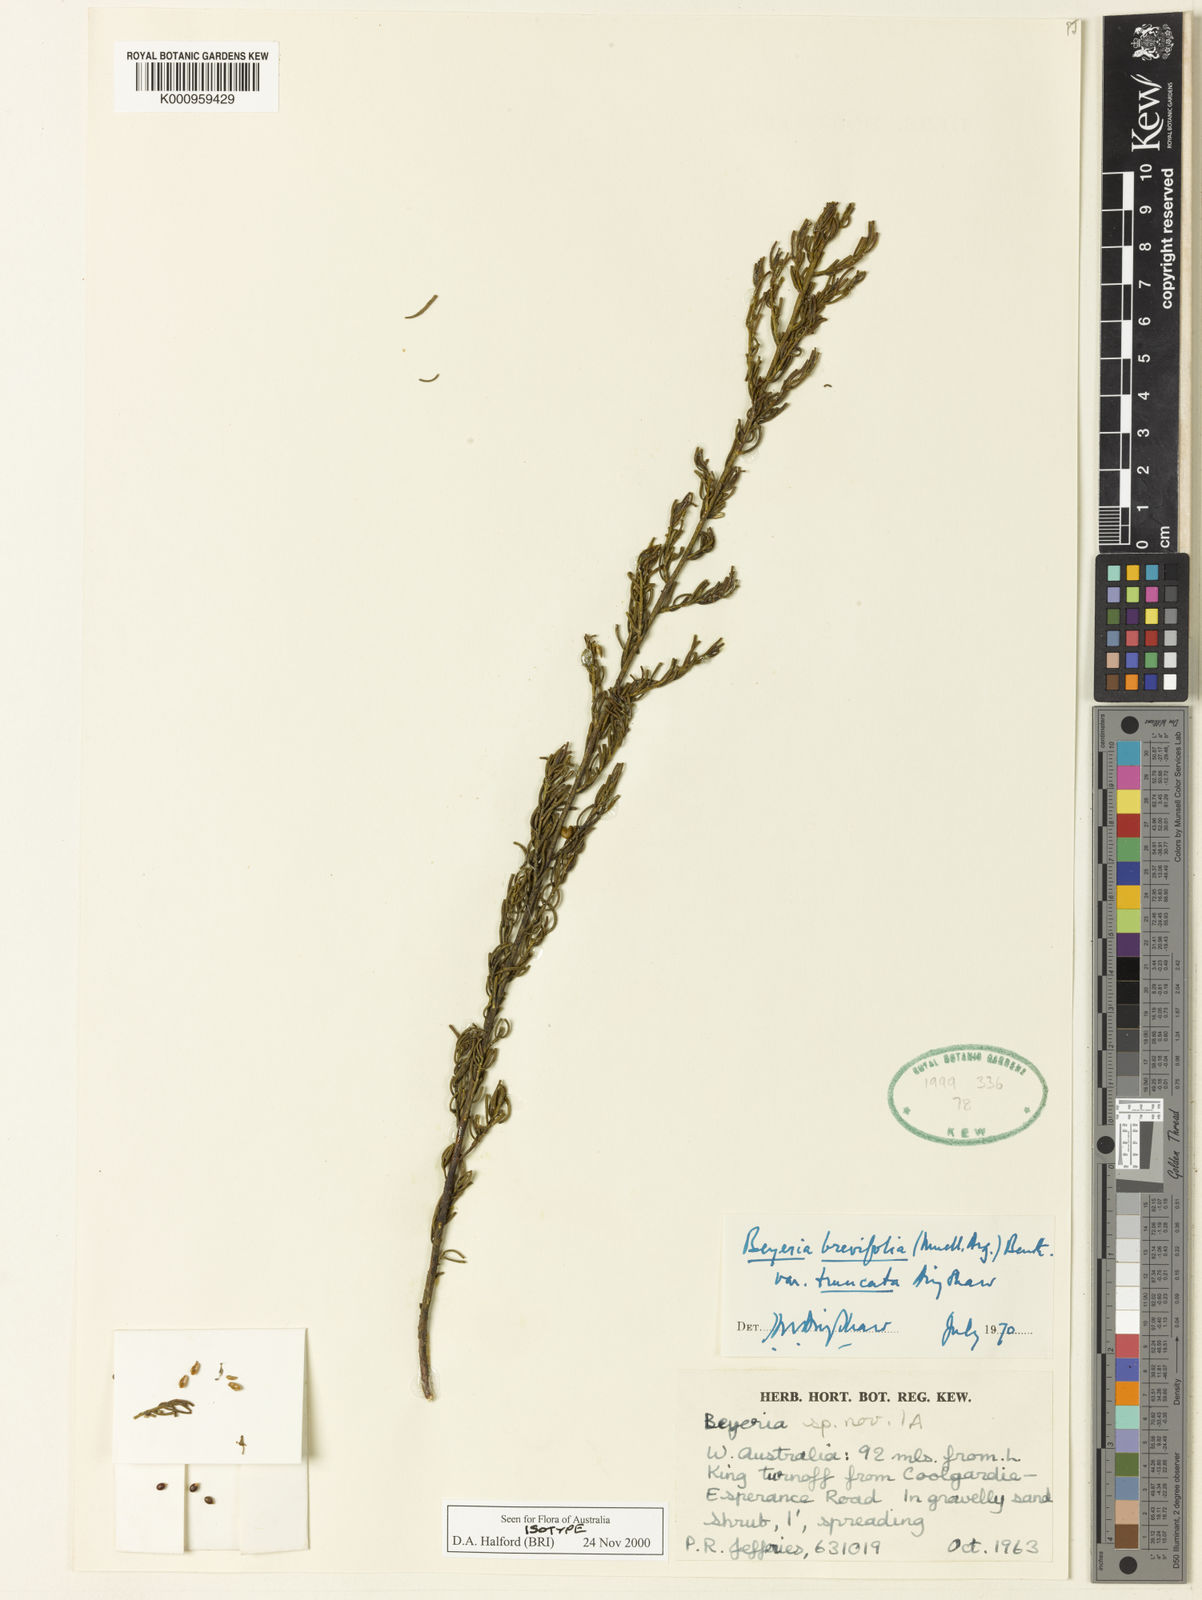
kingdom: Plantae
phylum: Tracheophyta
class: Magnoliopsida
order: Malpighiales
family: Euphorbiaceae
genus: Beyeria
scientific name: Beyeria
